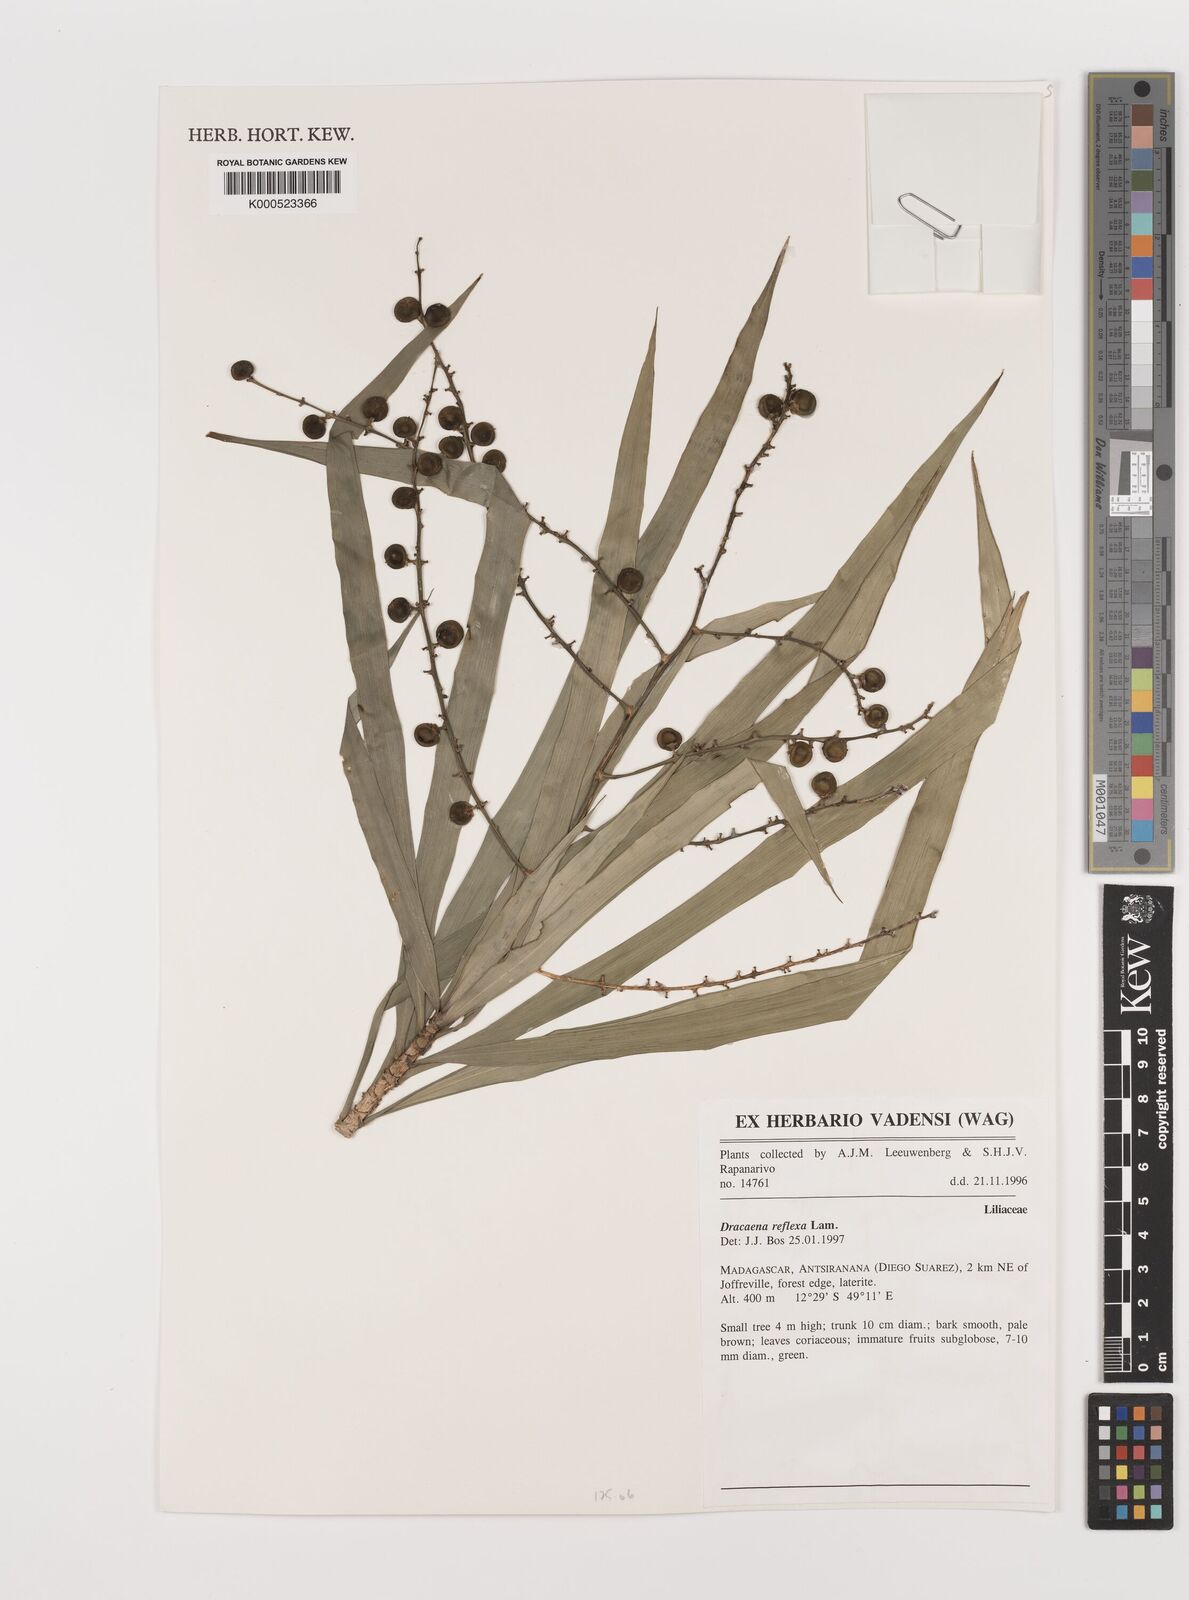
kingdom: Plantae
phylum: Tracheophyta
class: Liliopsida
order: Asparagales
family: Asparagaceae
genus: Dracaena
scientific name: Dracaena reflexa
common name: Song-of-india
